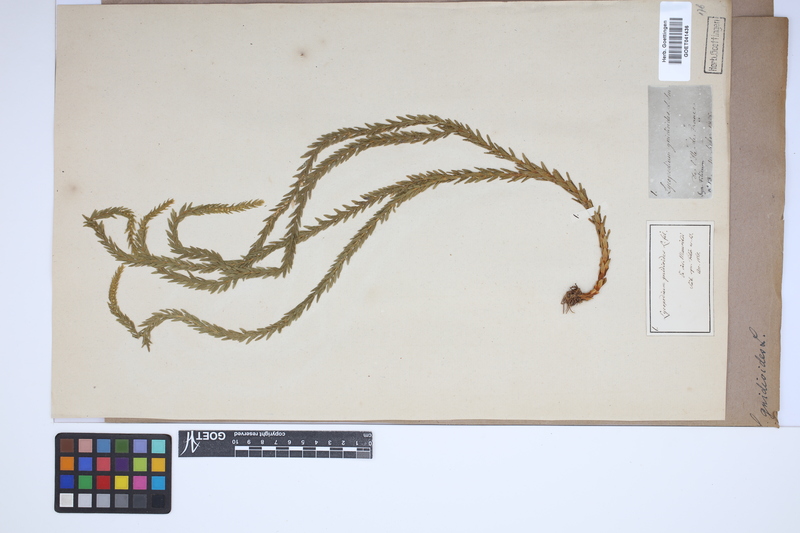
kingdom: Plantae
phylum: Tracheophyta
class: Lycopodiopsida
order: Lycopodiales
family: Lycopodiaceae
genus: Phlegmariurus
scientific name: Phlegmariurus gnidioides
